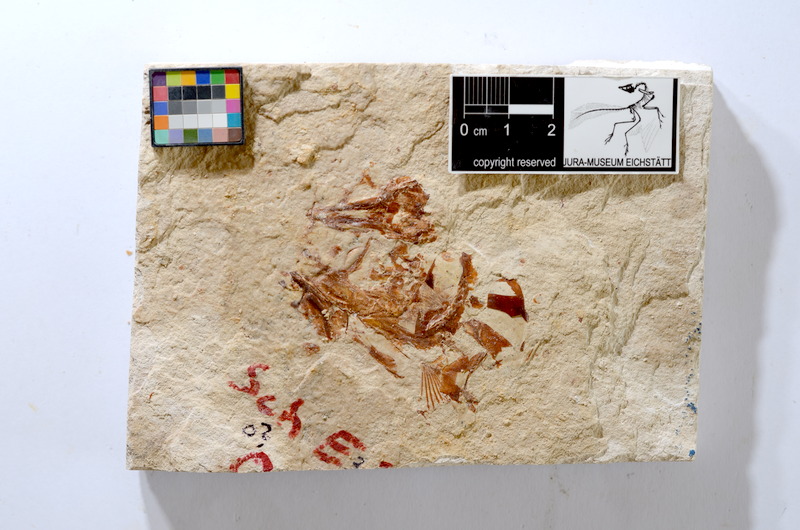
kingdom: Animalia
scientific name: Animalia
